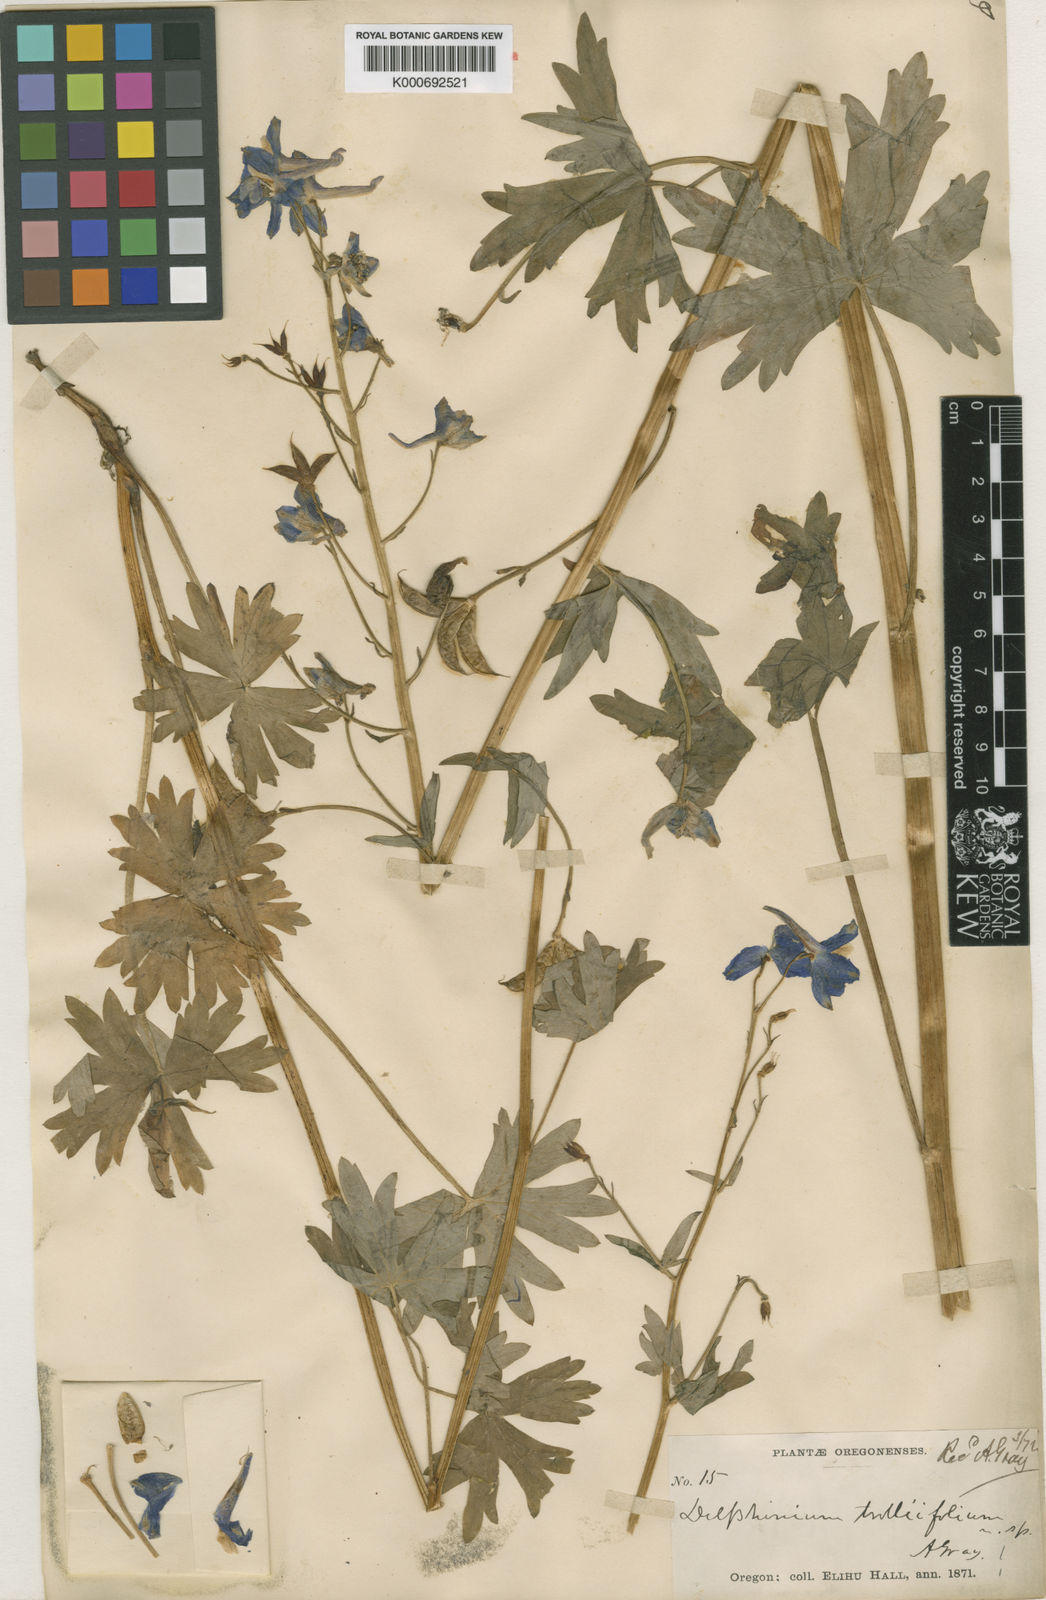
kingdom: Plantae
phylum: Tracheophyta
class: Magnoliopsida
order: Ranunculales
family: Ranunculaceae
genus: Delphinium
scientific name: Delphinium trolliifolium
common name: Cow-poison
